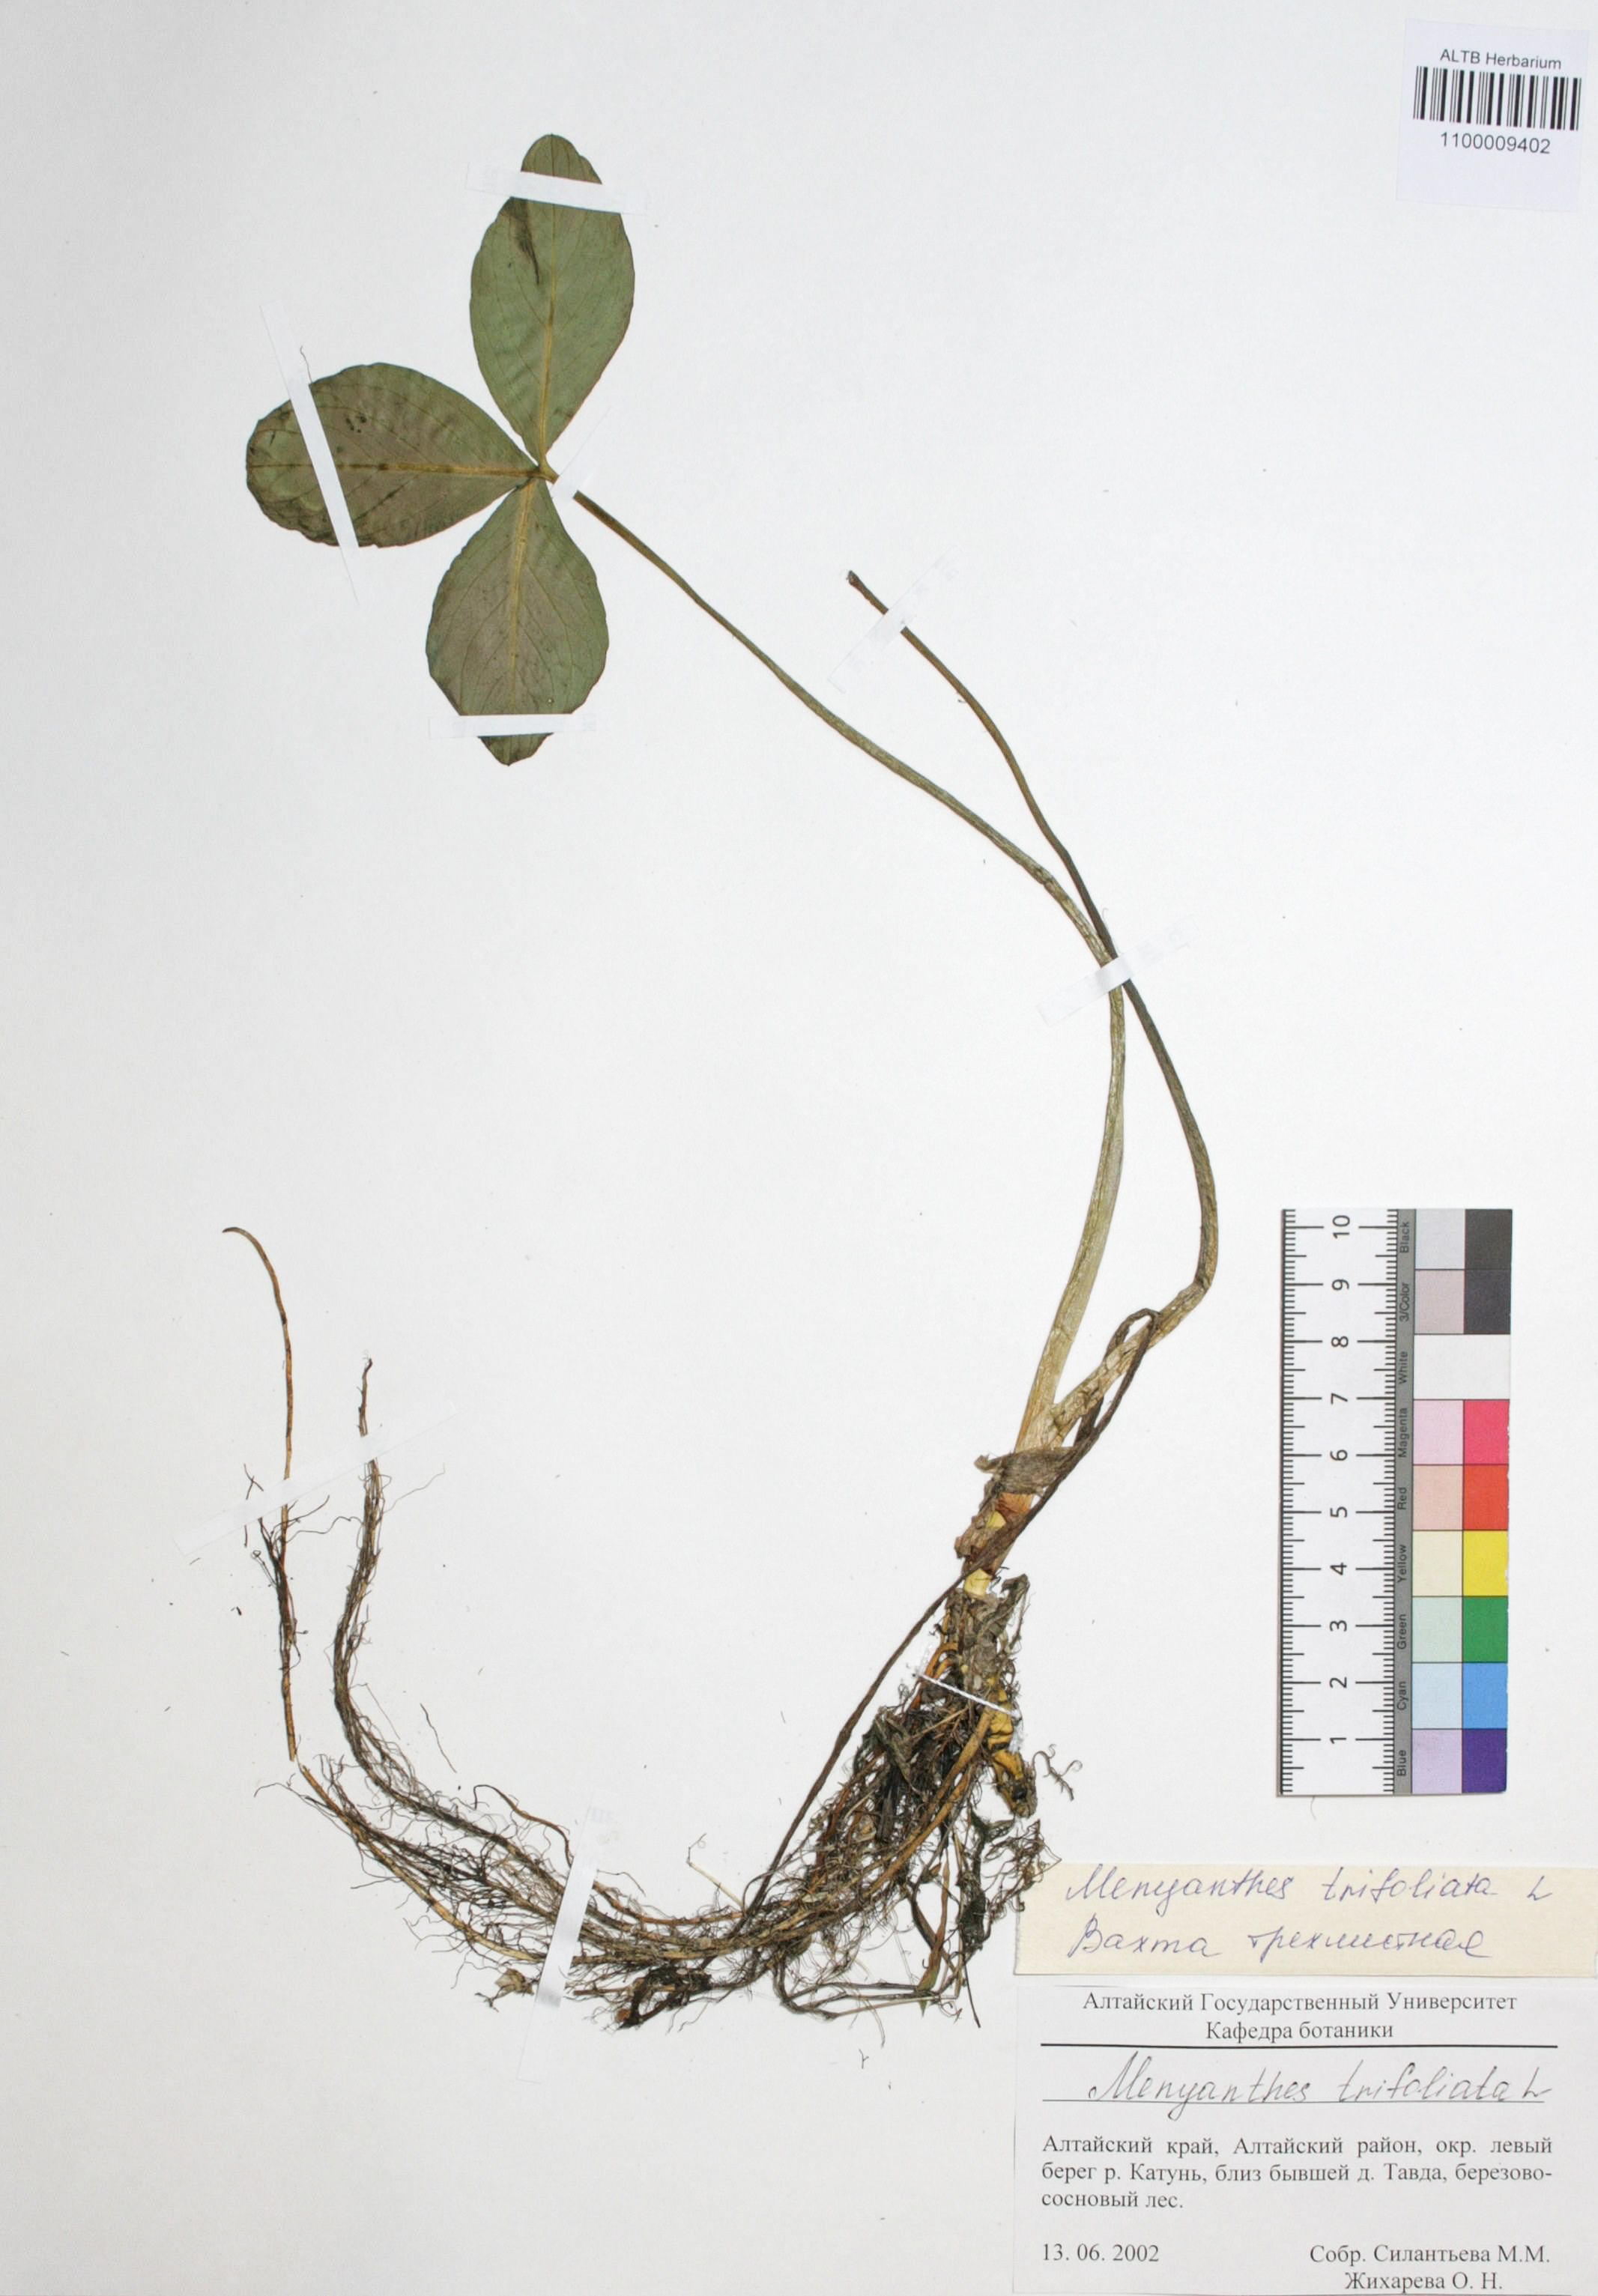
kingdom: Plantae
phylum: Tracheophyta
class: Magnoliopsida
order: Asterales
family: Menyanthaceae
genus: Menyanthes
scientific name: Menyanthes trifoliata
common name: Bogbean
